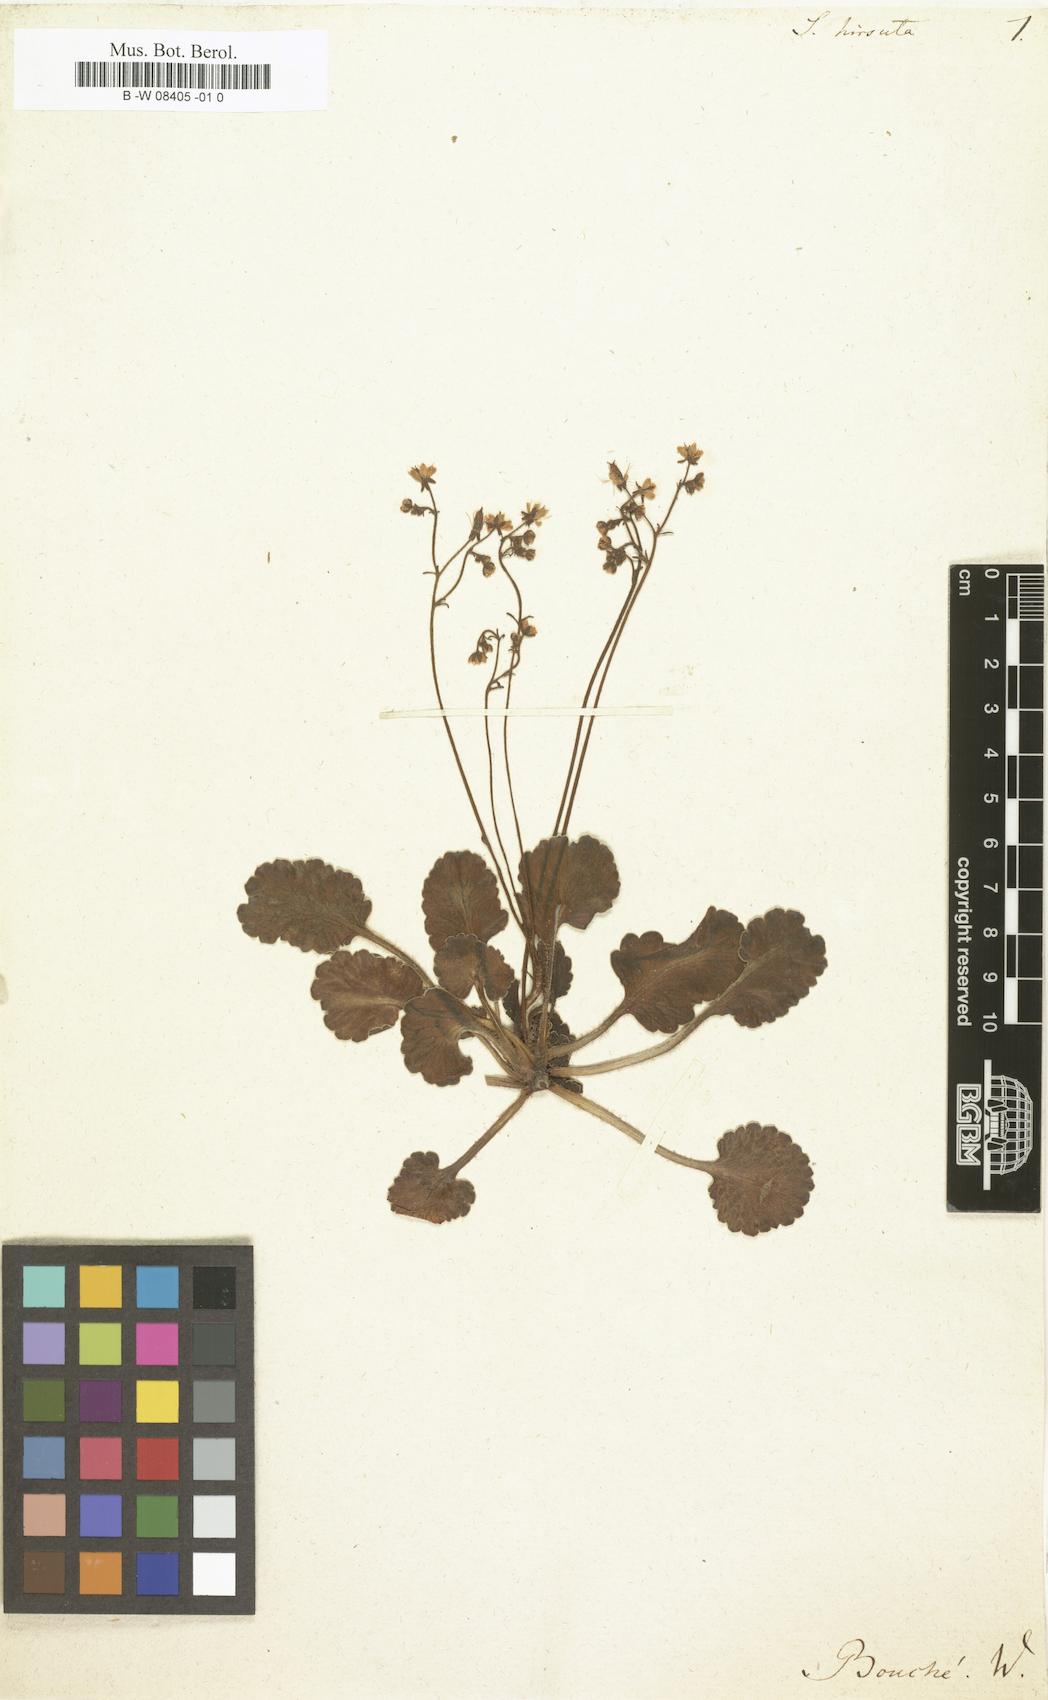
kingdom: Plantae
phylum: Tracheophyta
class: Magnoliopsida
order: Saxifragales
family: Saxifragaceae
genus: Saxifraga
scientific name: Saxifraga hirsuta
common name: Kidney saxifrage
